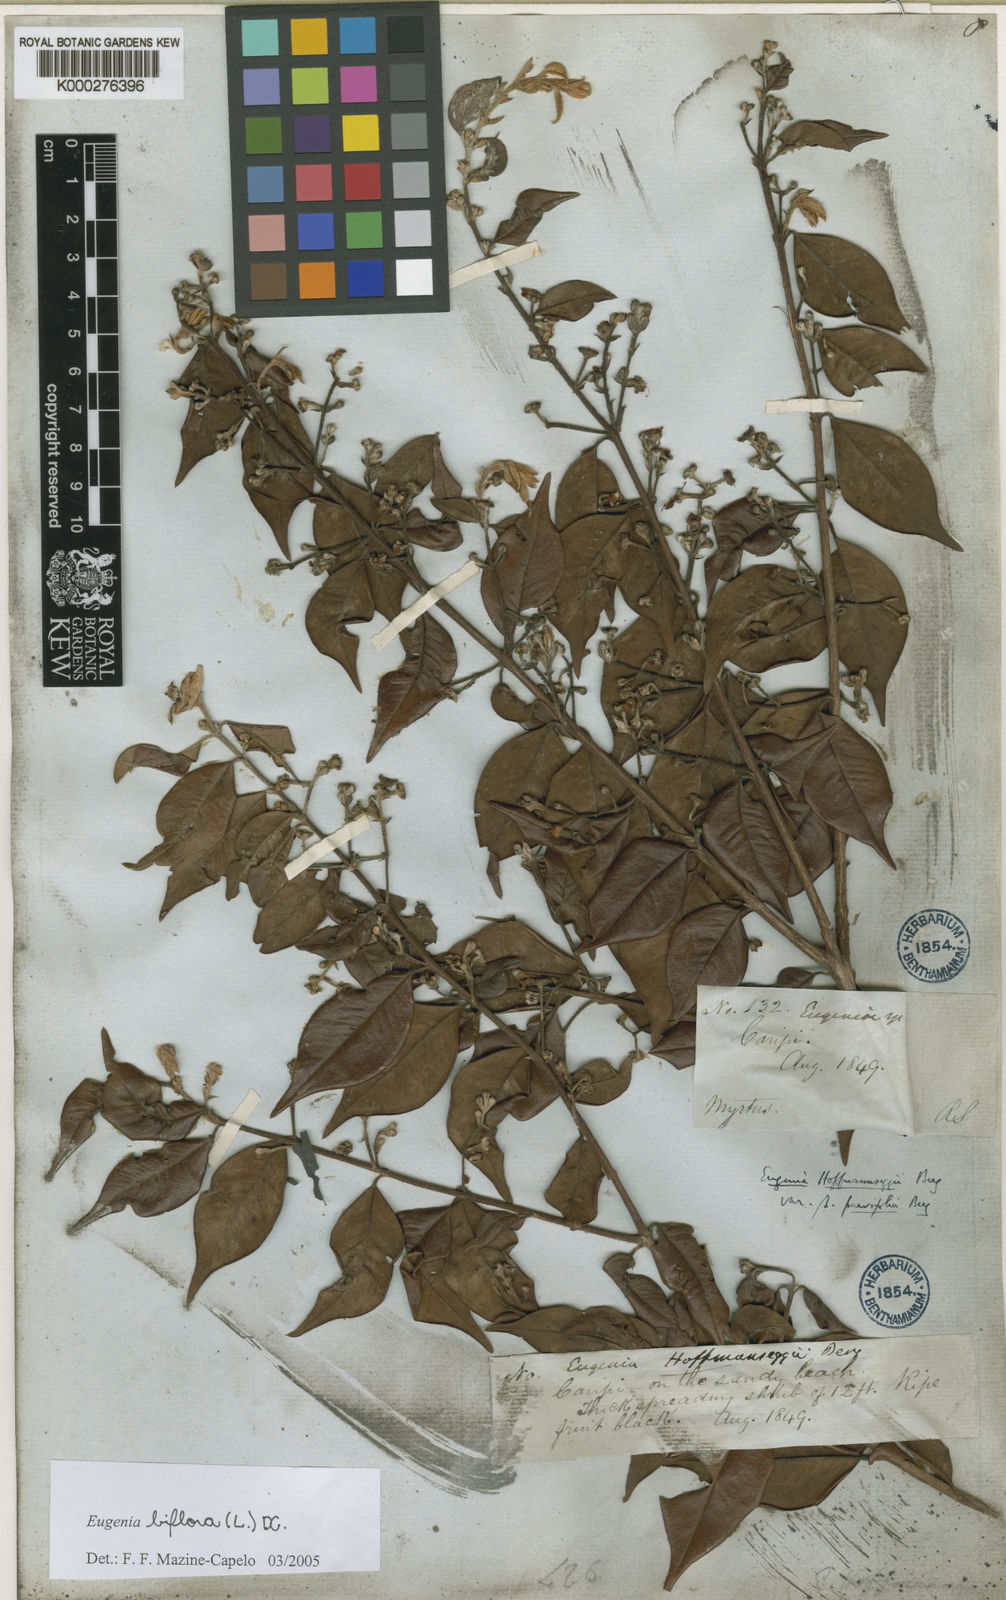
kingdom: Plantae
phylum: Tracheophyta
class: Magnoliopsida
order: Myrtales
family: Myrtaceae
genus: Eugenia
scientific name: Eugenia biflora
